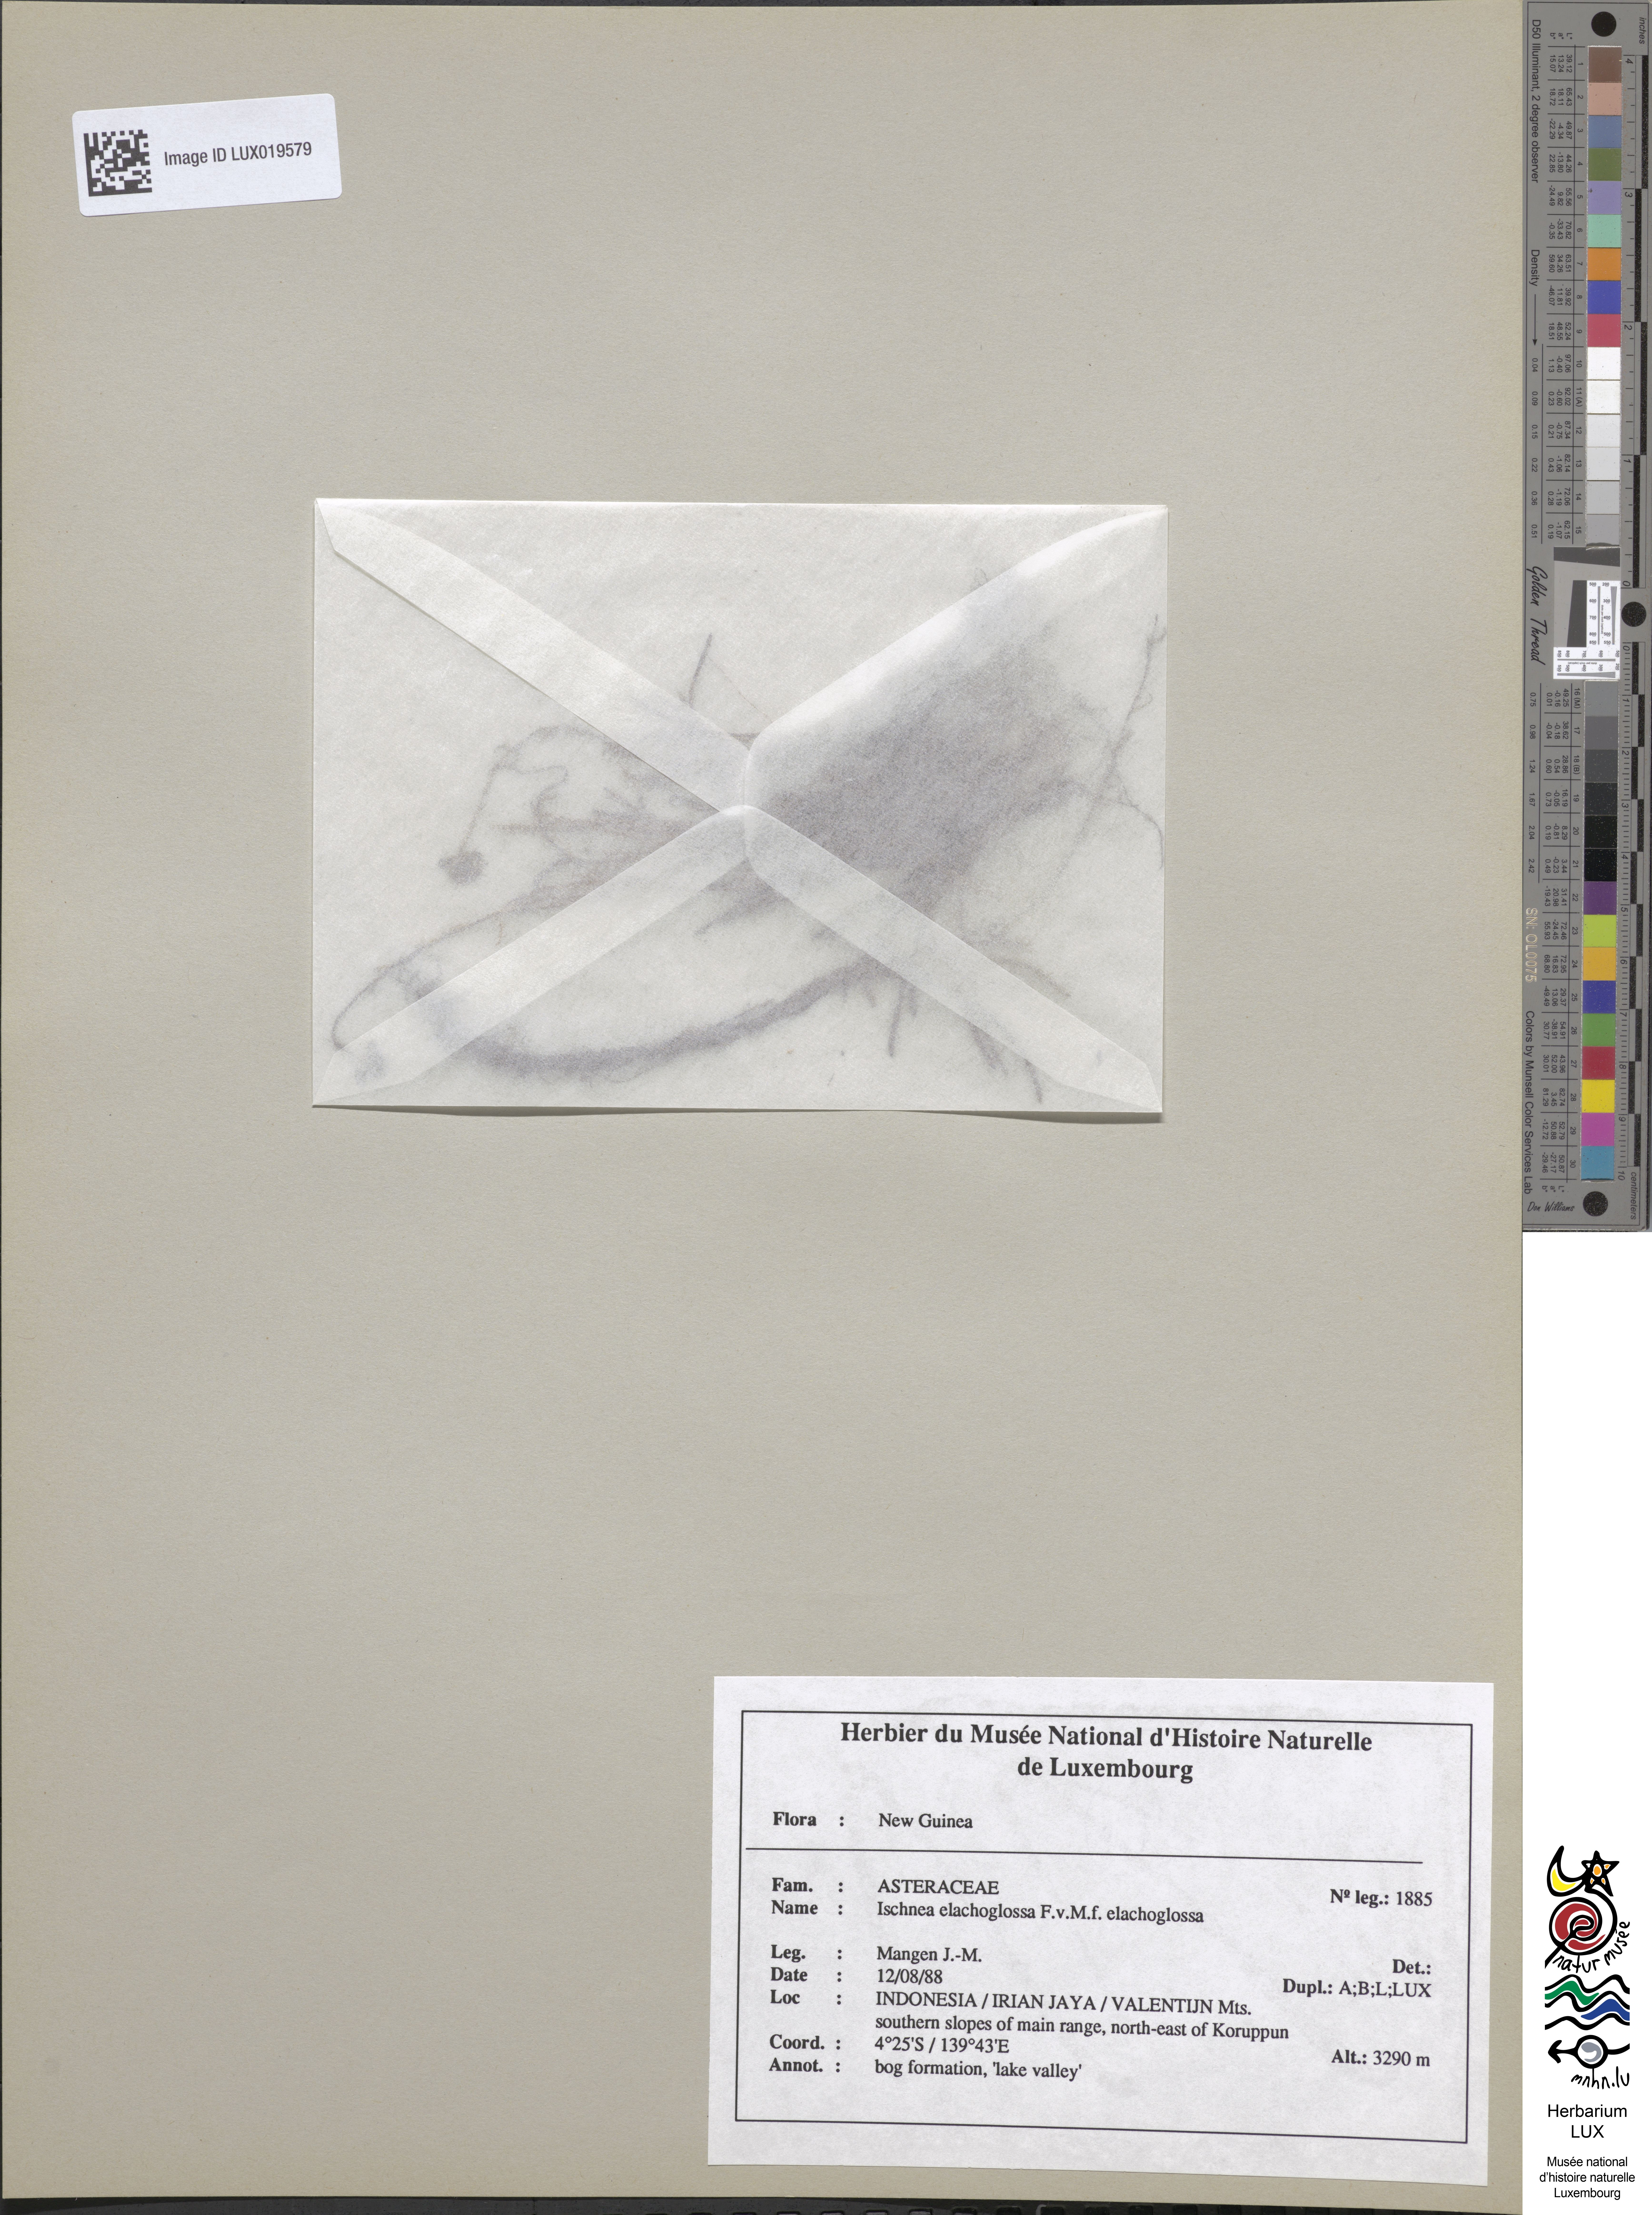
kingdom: Plantae
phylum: Tracheophyta
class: Magnoliopsida
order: Asterales
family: Asteraceae
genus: Ischnea
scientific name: Ischnea elachoglossa
